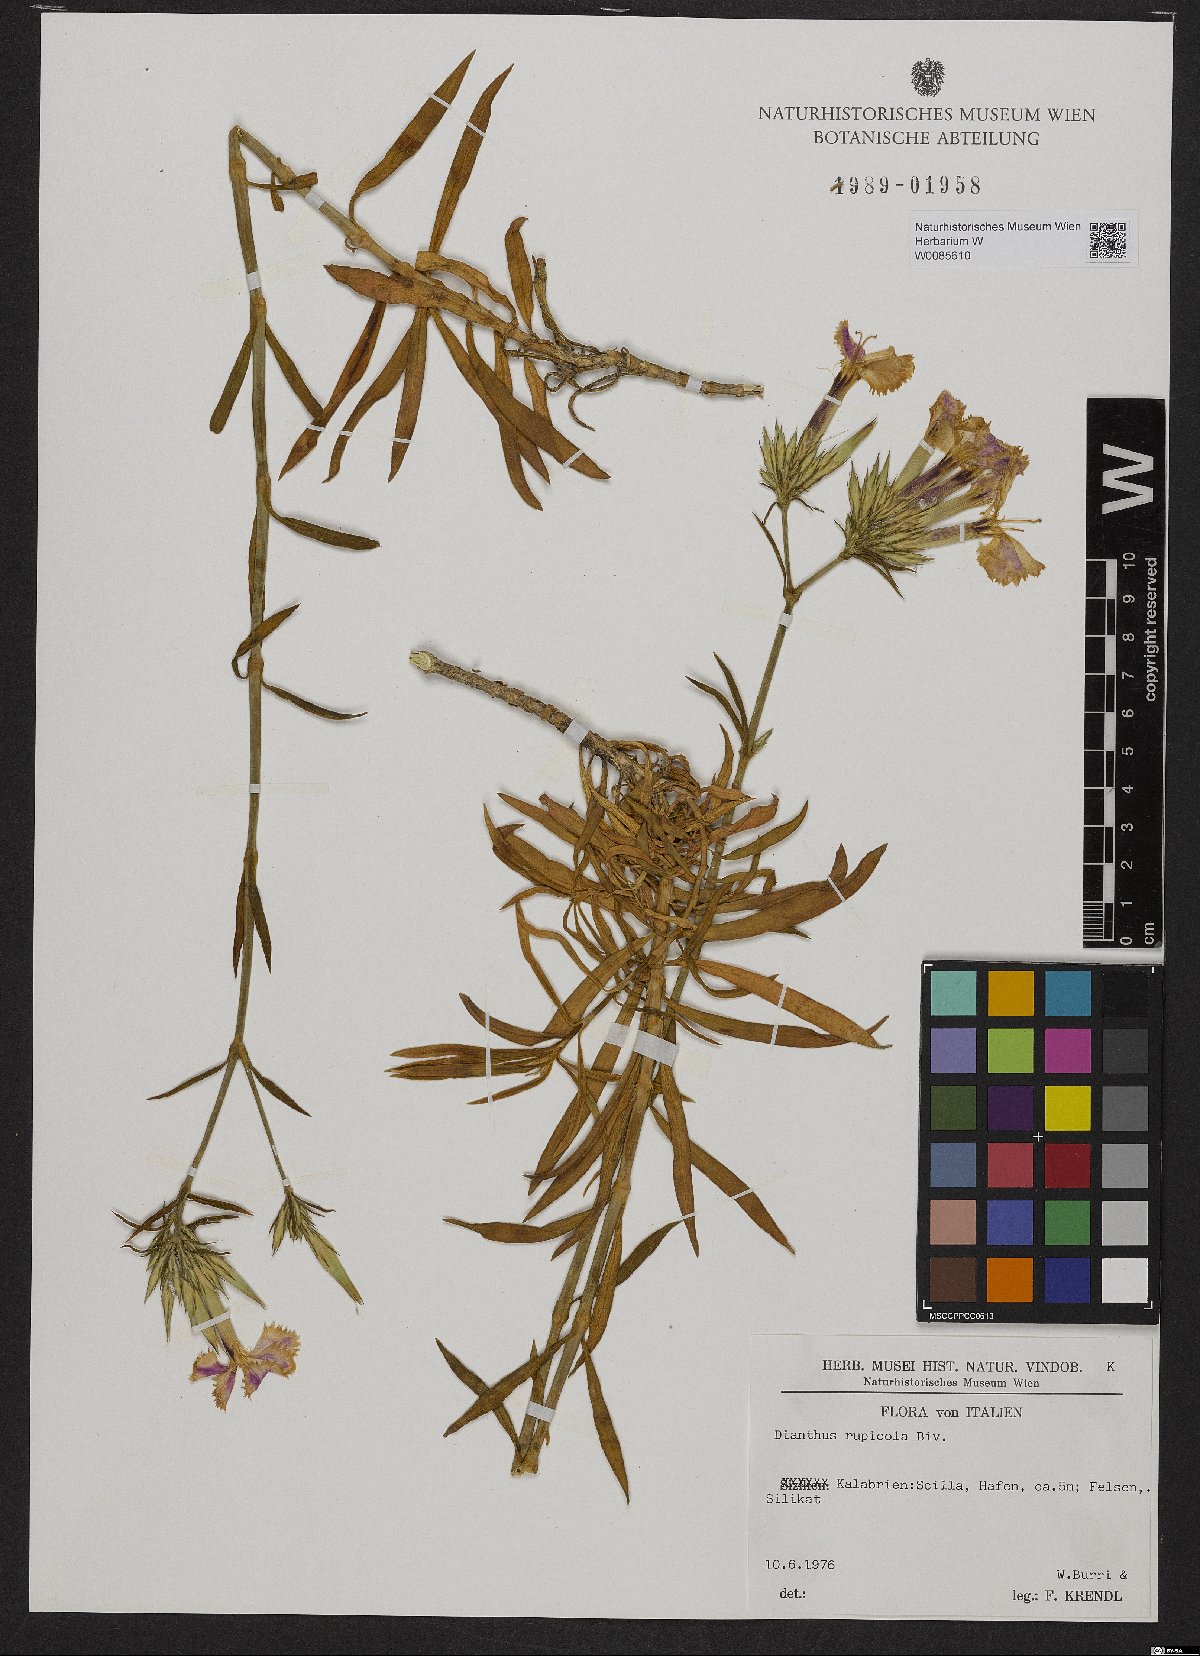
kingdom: Plantae
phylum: Tracheophyta
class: Magnoliopsida
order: Caryophyllales
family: Caryophyllaceae
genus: Dianthus
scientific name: Dianthus rupicola
